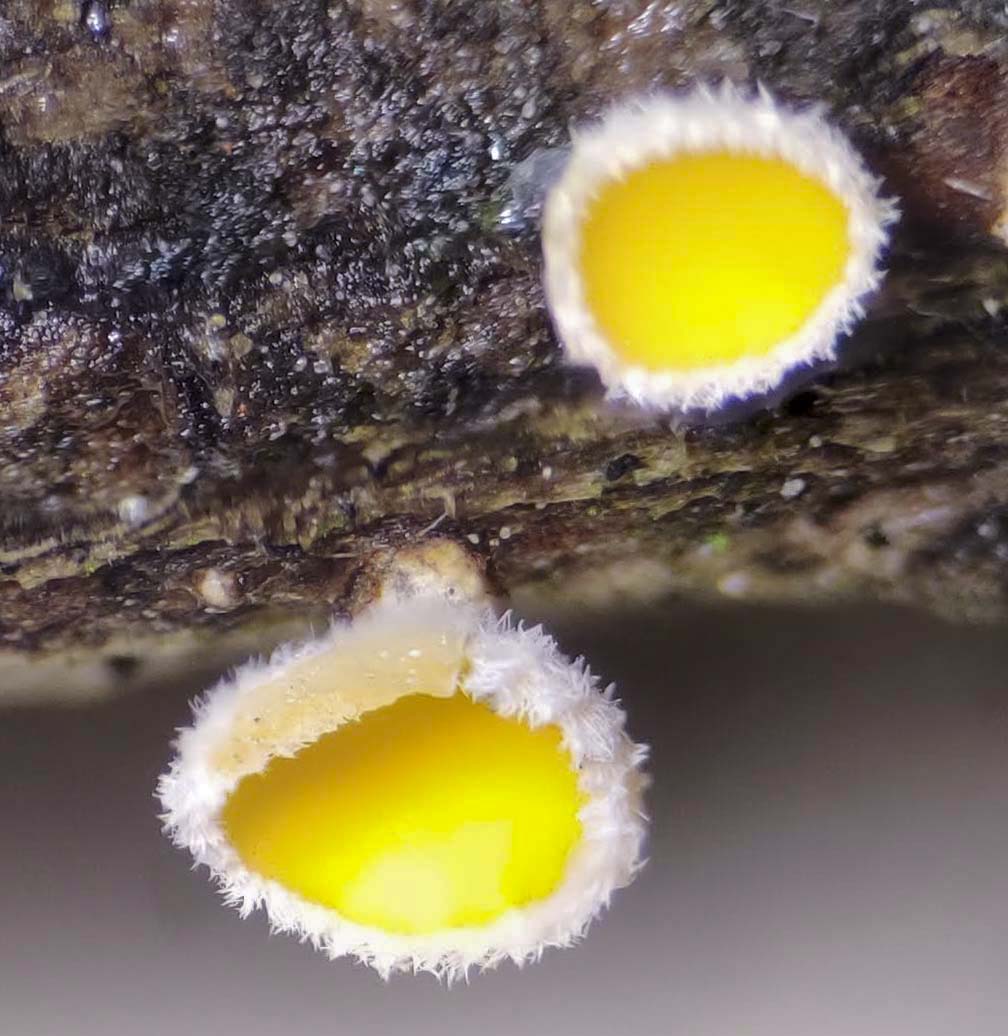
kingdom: Fungi
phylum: Ascomycota
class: Leotiomycetes
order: Helotiales
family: Lachnaceae
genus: Lachnellula
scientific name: Lachnellula subtilissima
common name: gran-frynseskive
